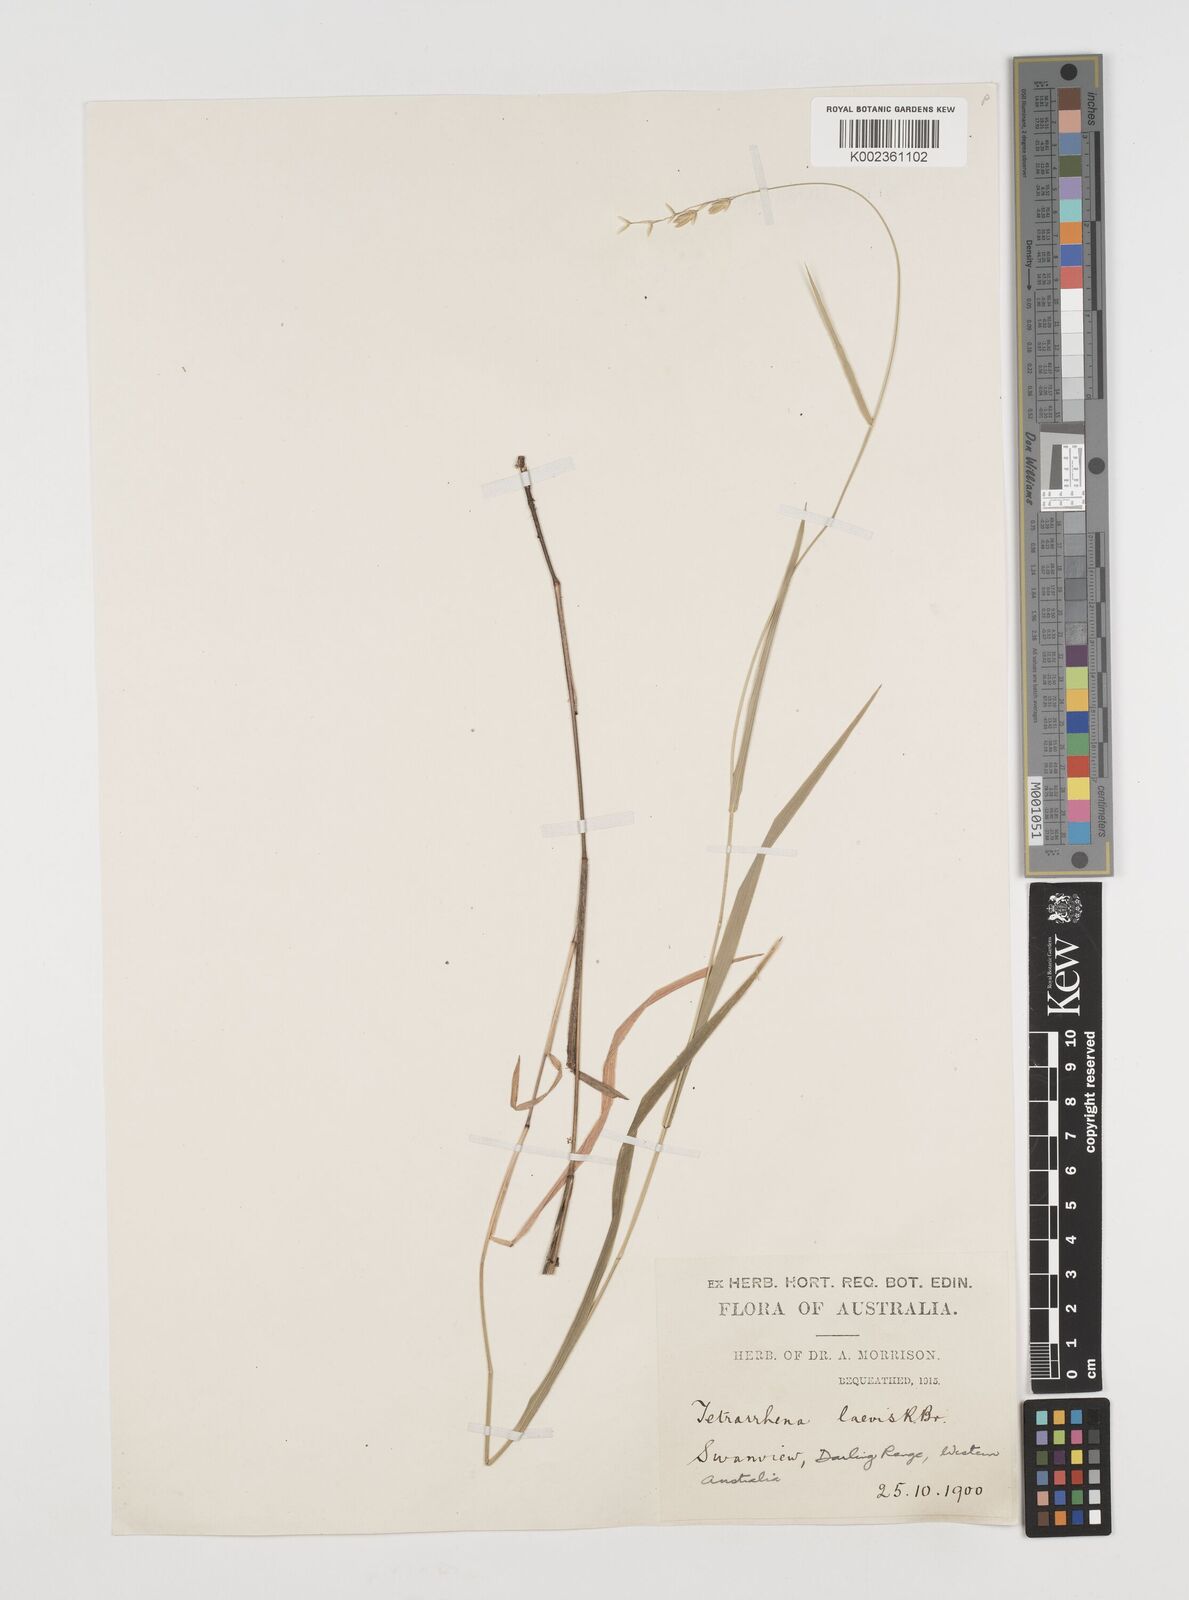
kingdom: Plantae
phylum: Tracheophyta
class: Liliopsida
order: Poales
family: Poaceae
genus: Tetrarrhena
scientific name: Tetrarrhena laevis
